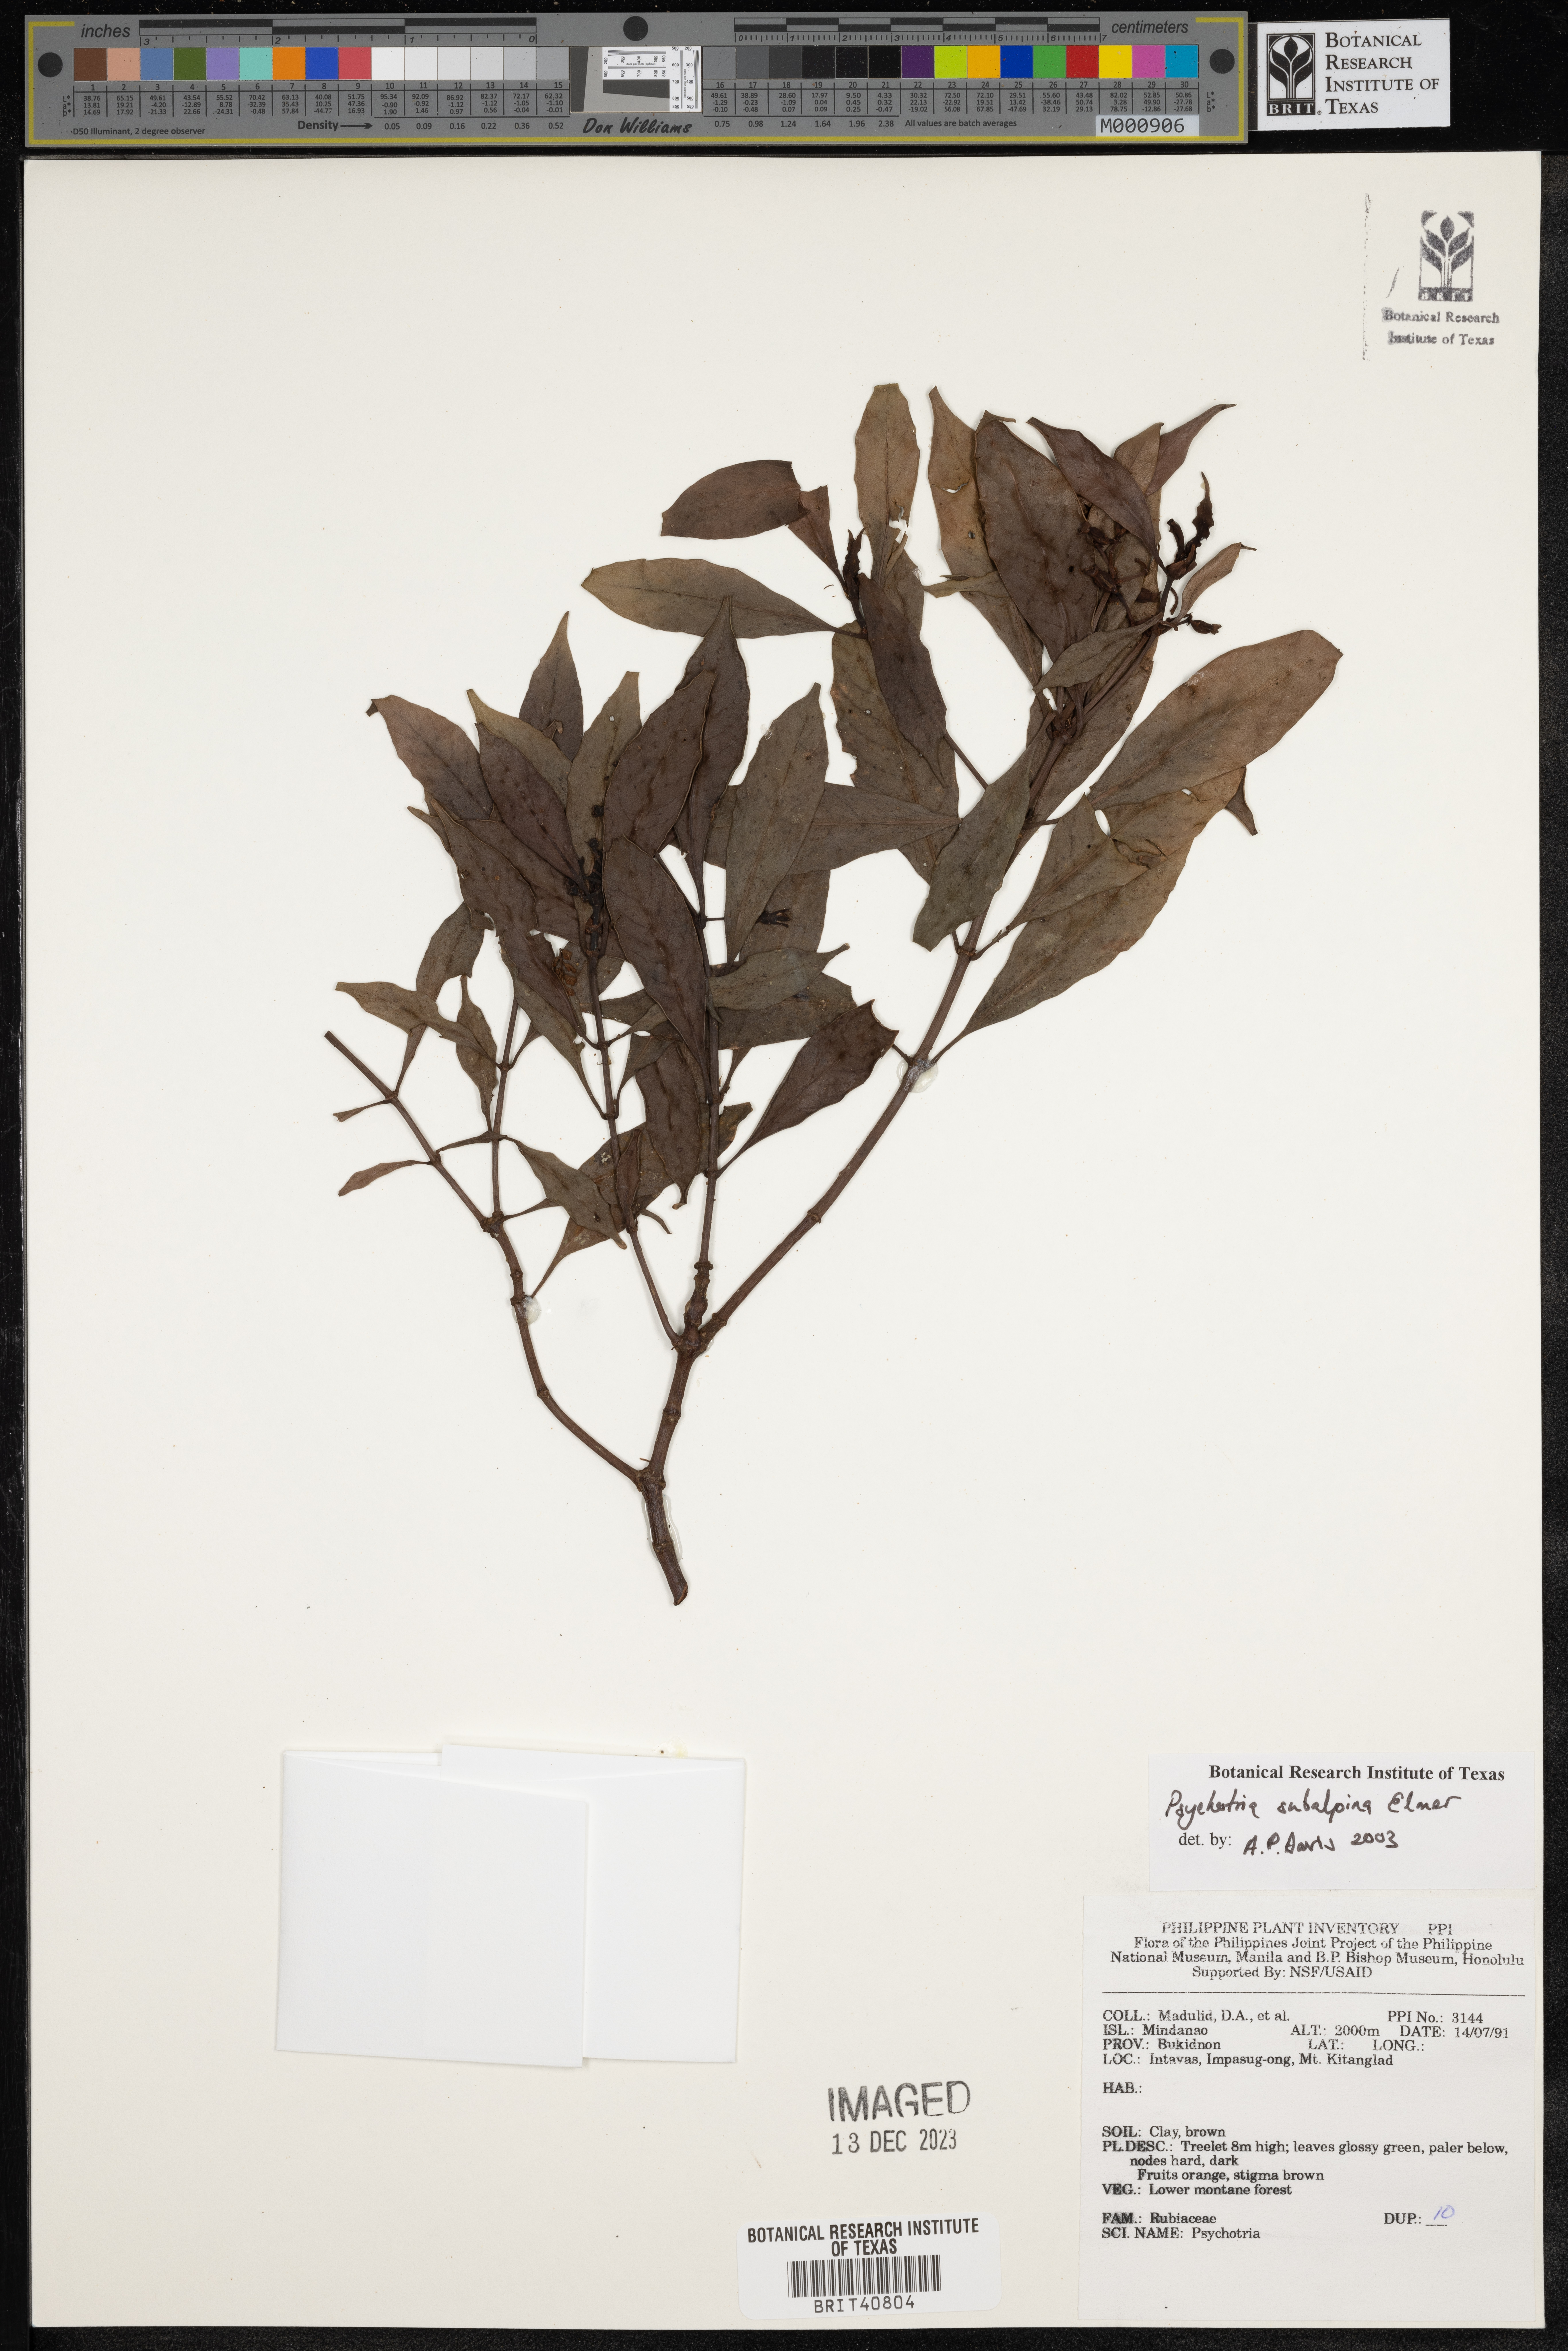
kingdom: Plantae
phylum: Tracheophyta
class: Magnoliopsida
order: Gentianales
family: Rubiaceae
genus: Psychotria
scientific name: Psychotria subalpina
